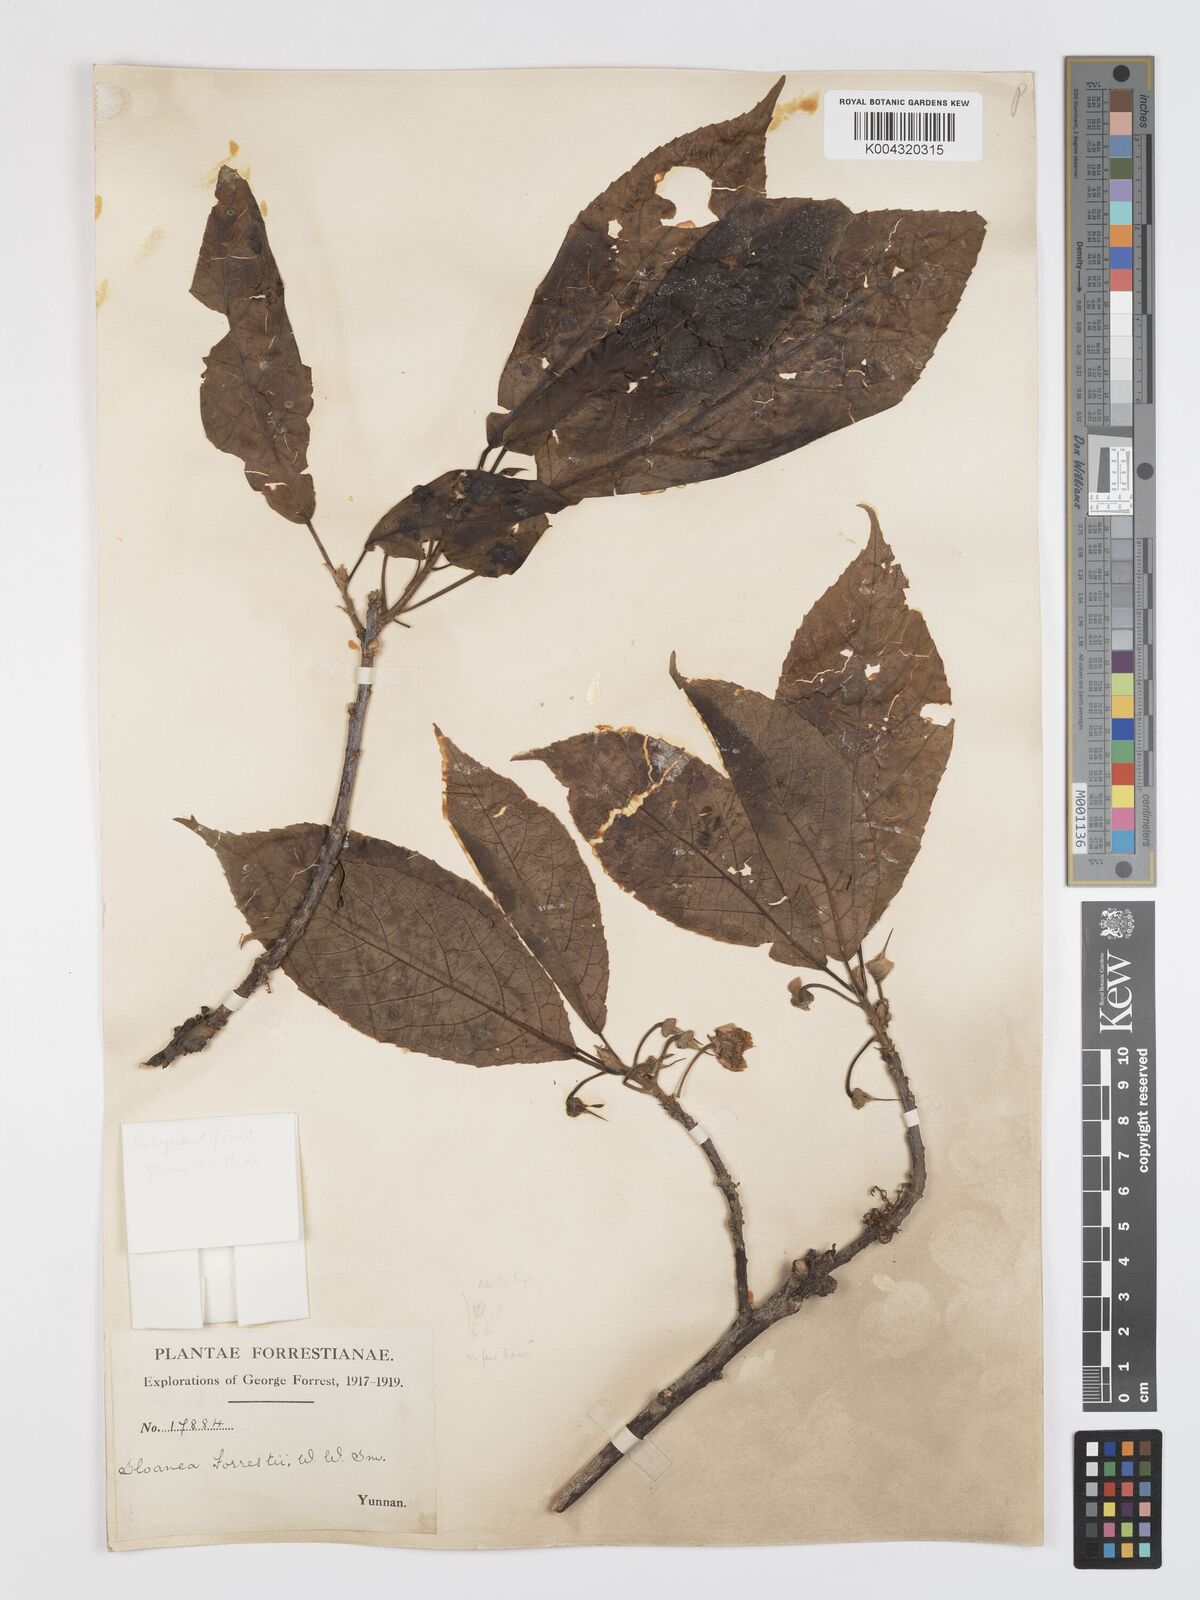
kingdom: Plantae
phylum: Tracheophyta
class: Magnoliopsida
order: Oxalidales
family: Elaeocarpaceae
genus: Sloanea
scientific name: Sloanea sterculiacea
